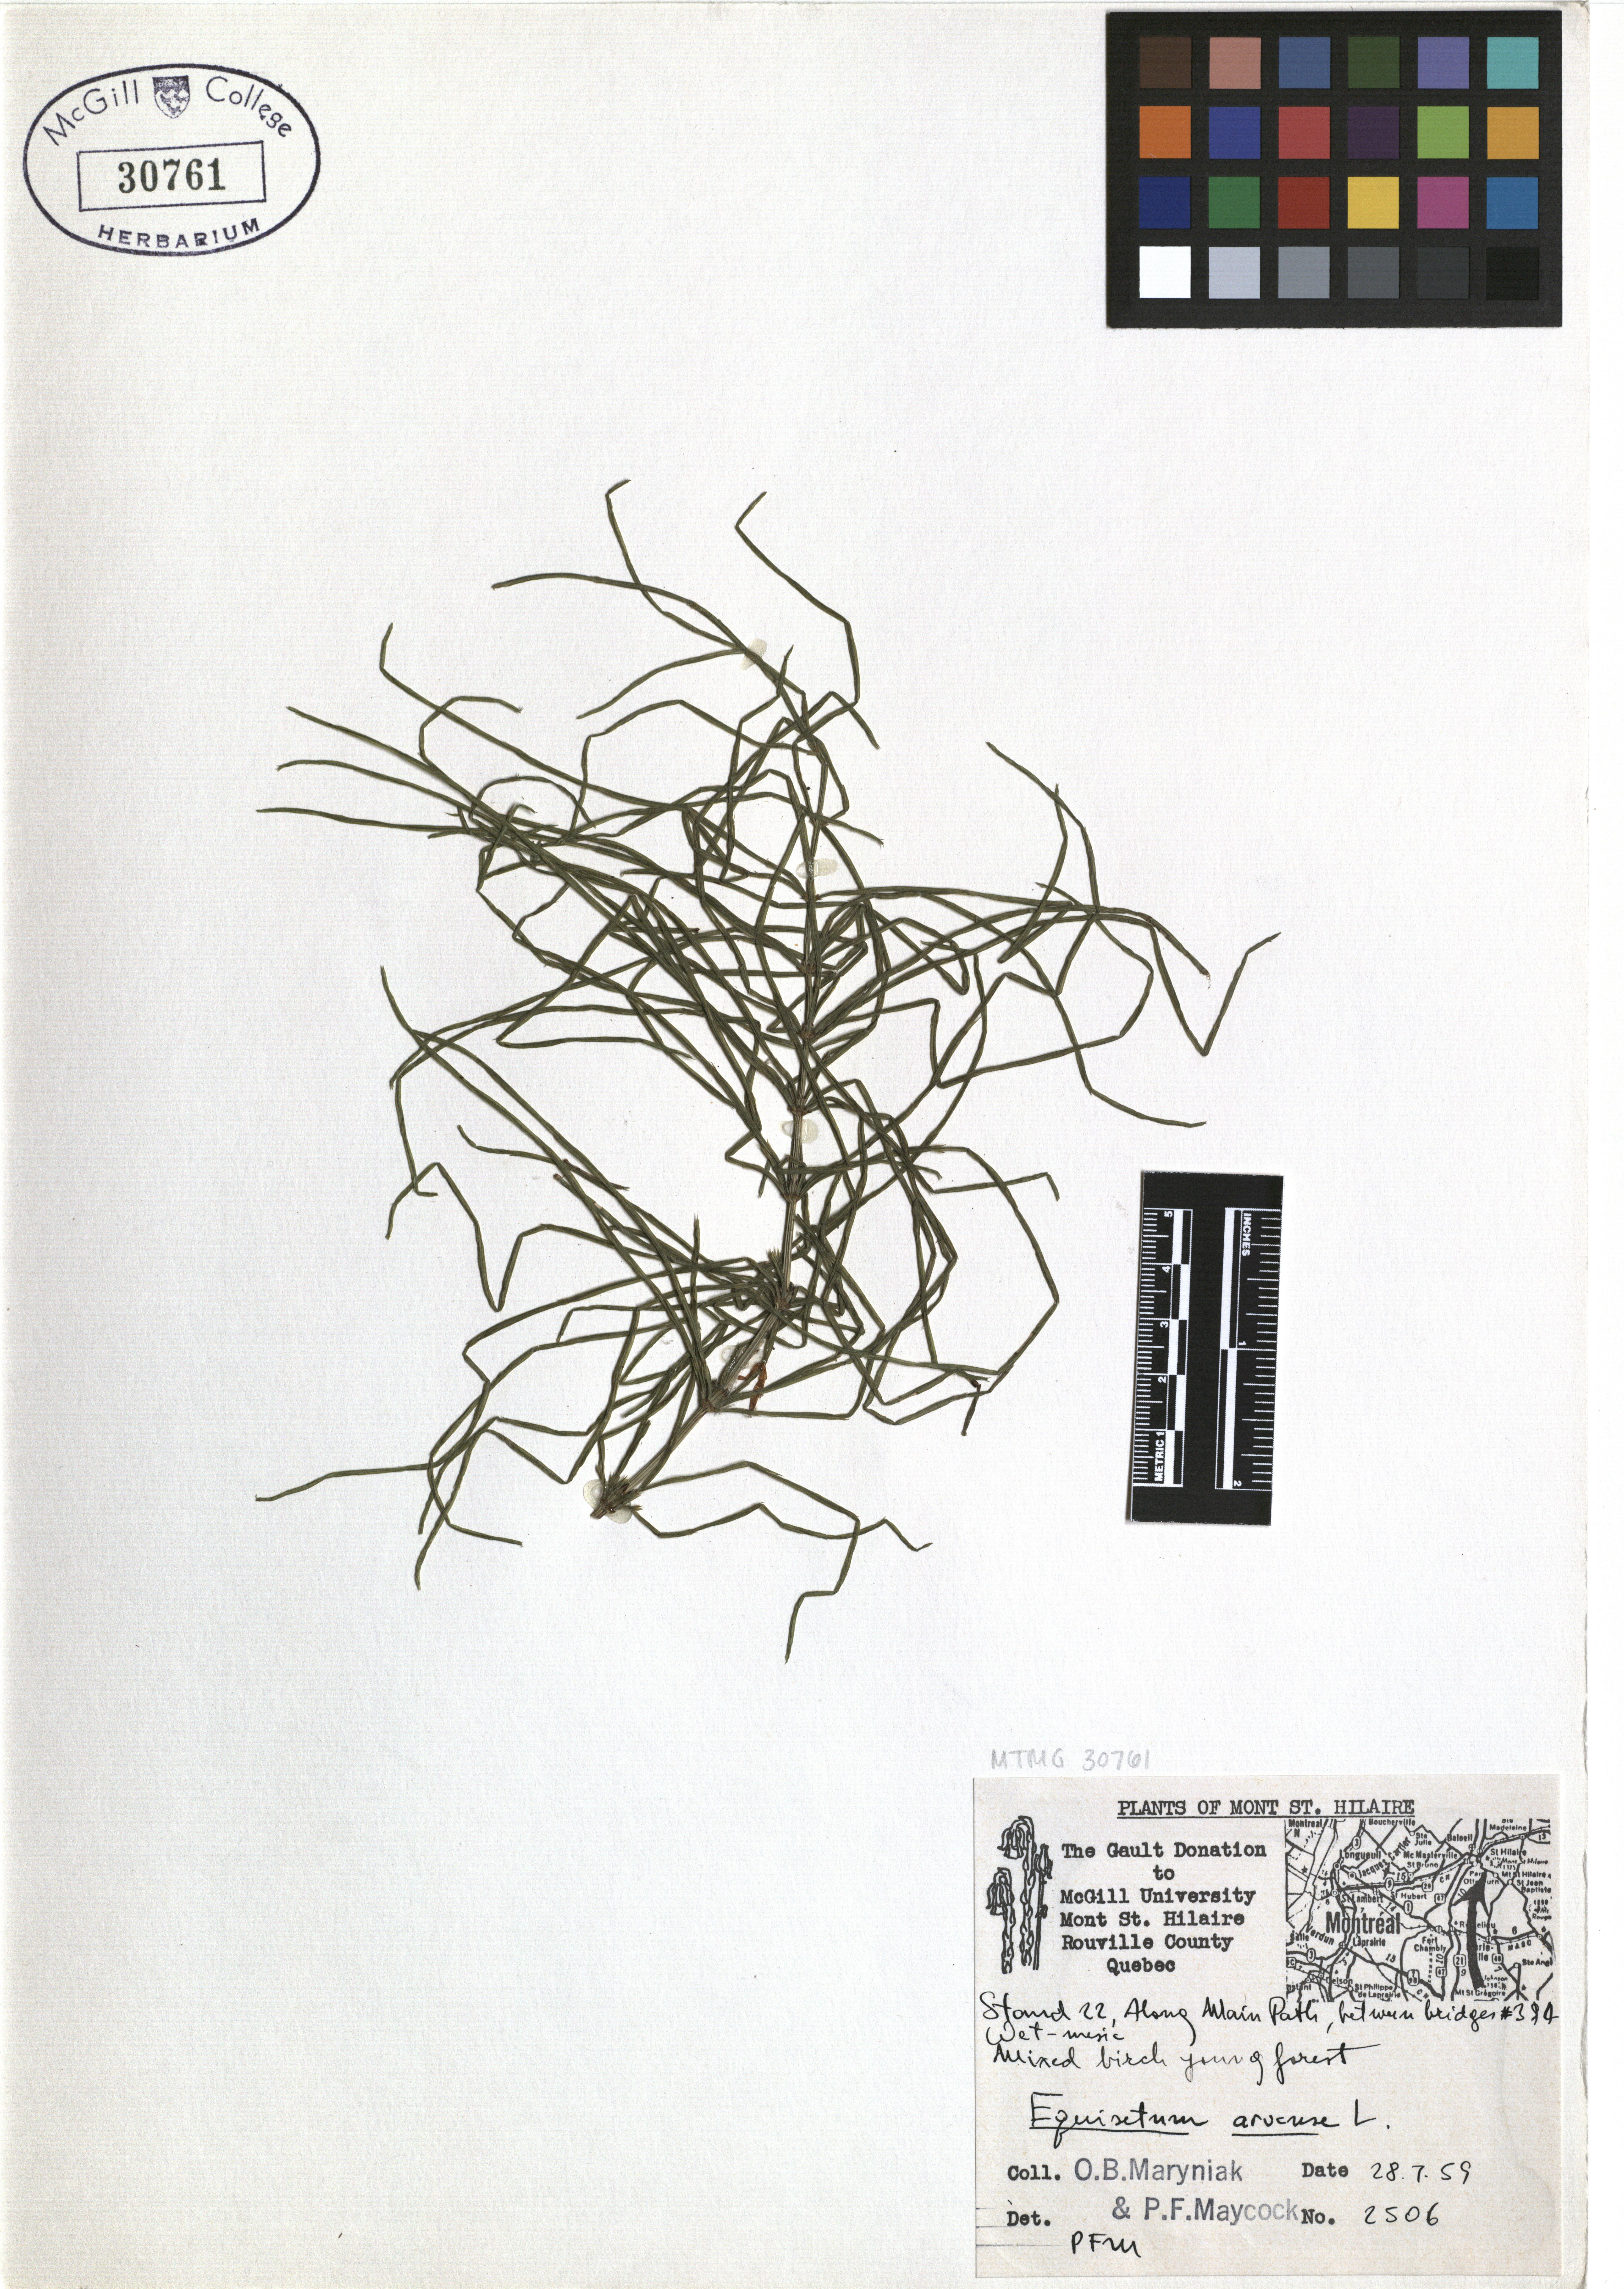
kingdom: Plantae
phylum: Tracheophyta
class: Polypodiopsida
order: Equisetales
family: Equisetaceae
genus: Equisetum
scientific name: Equisetum arvense
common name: Field horsetail
